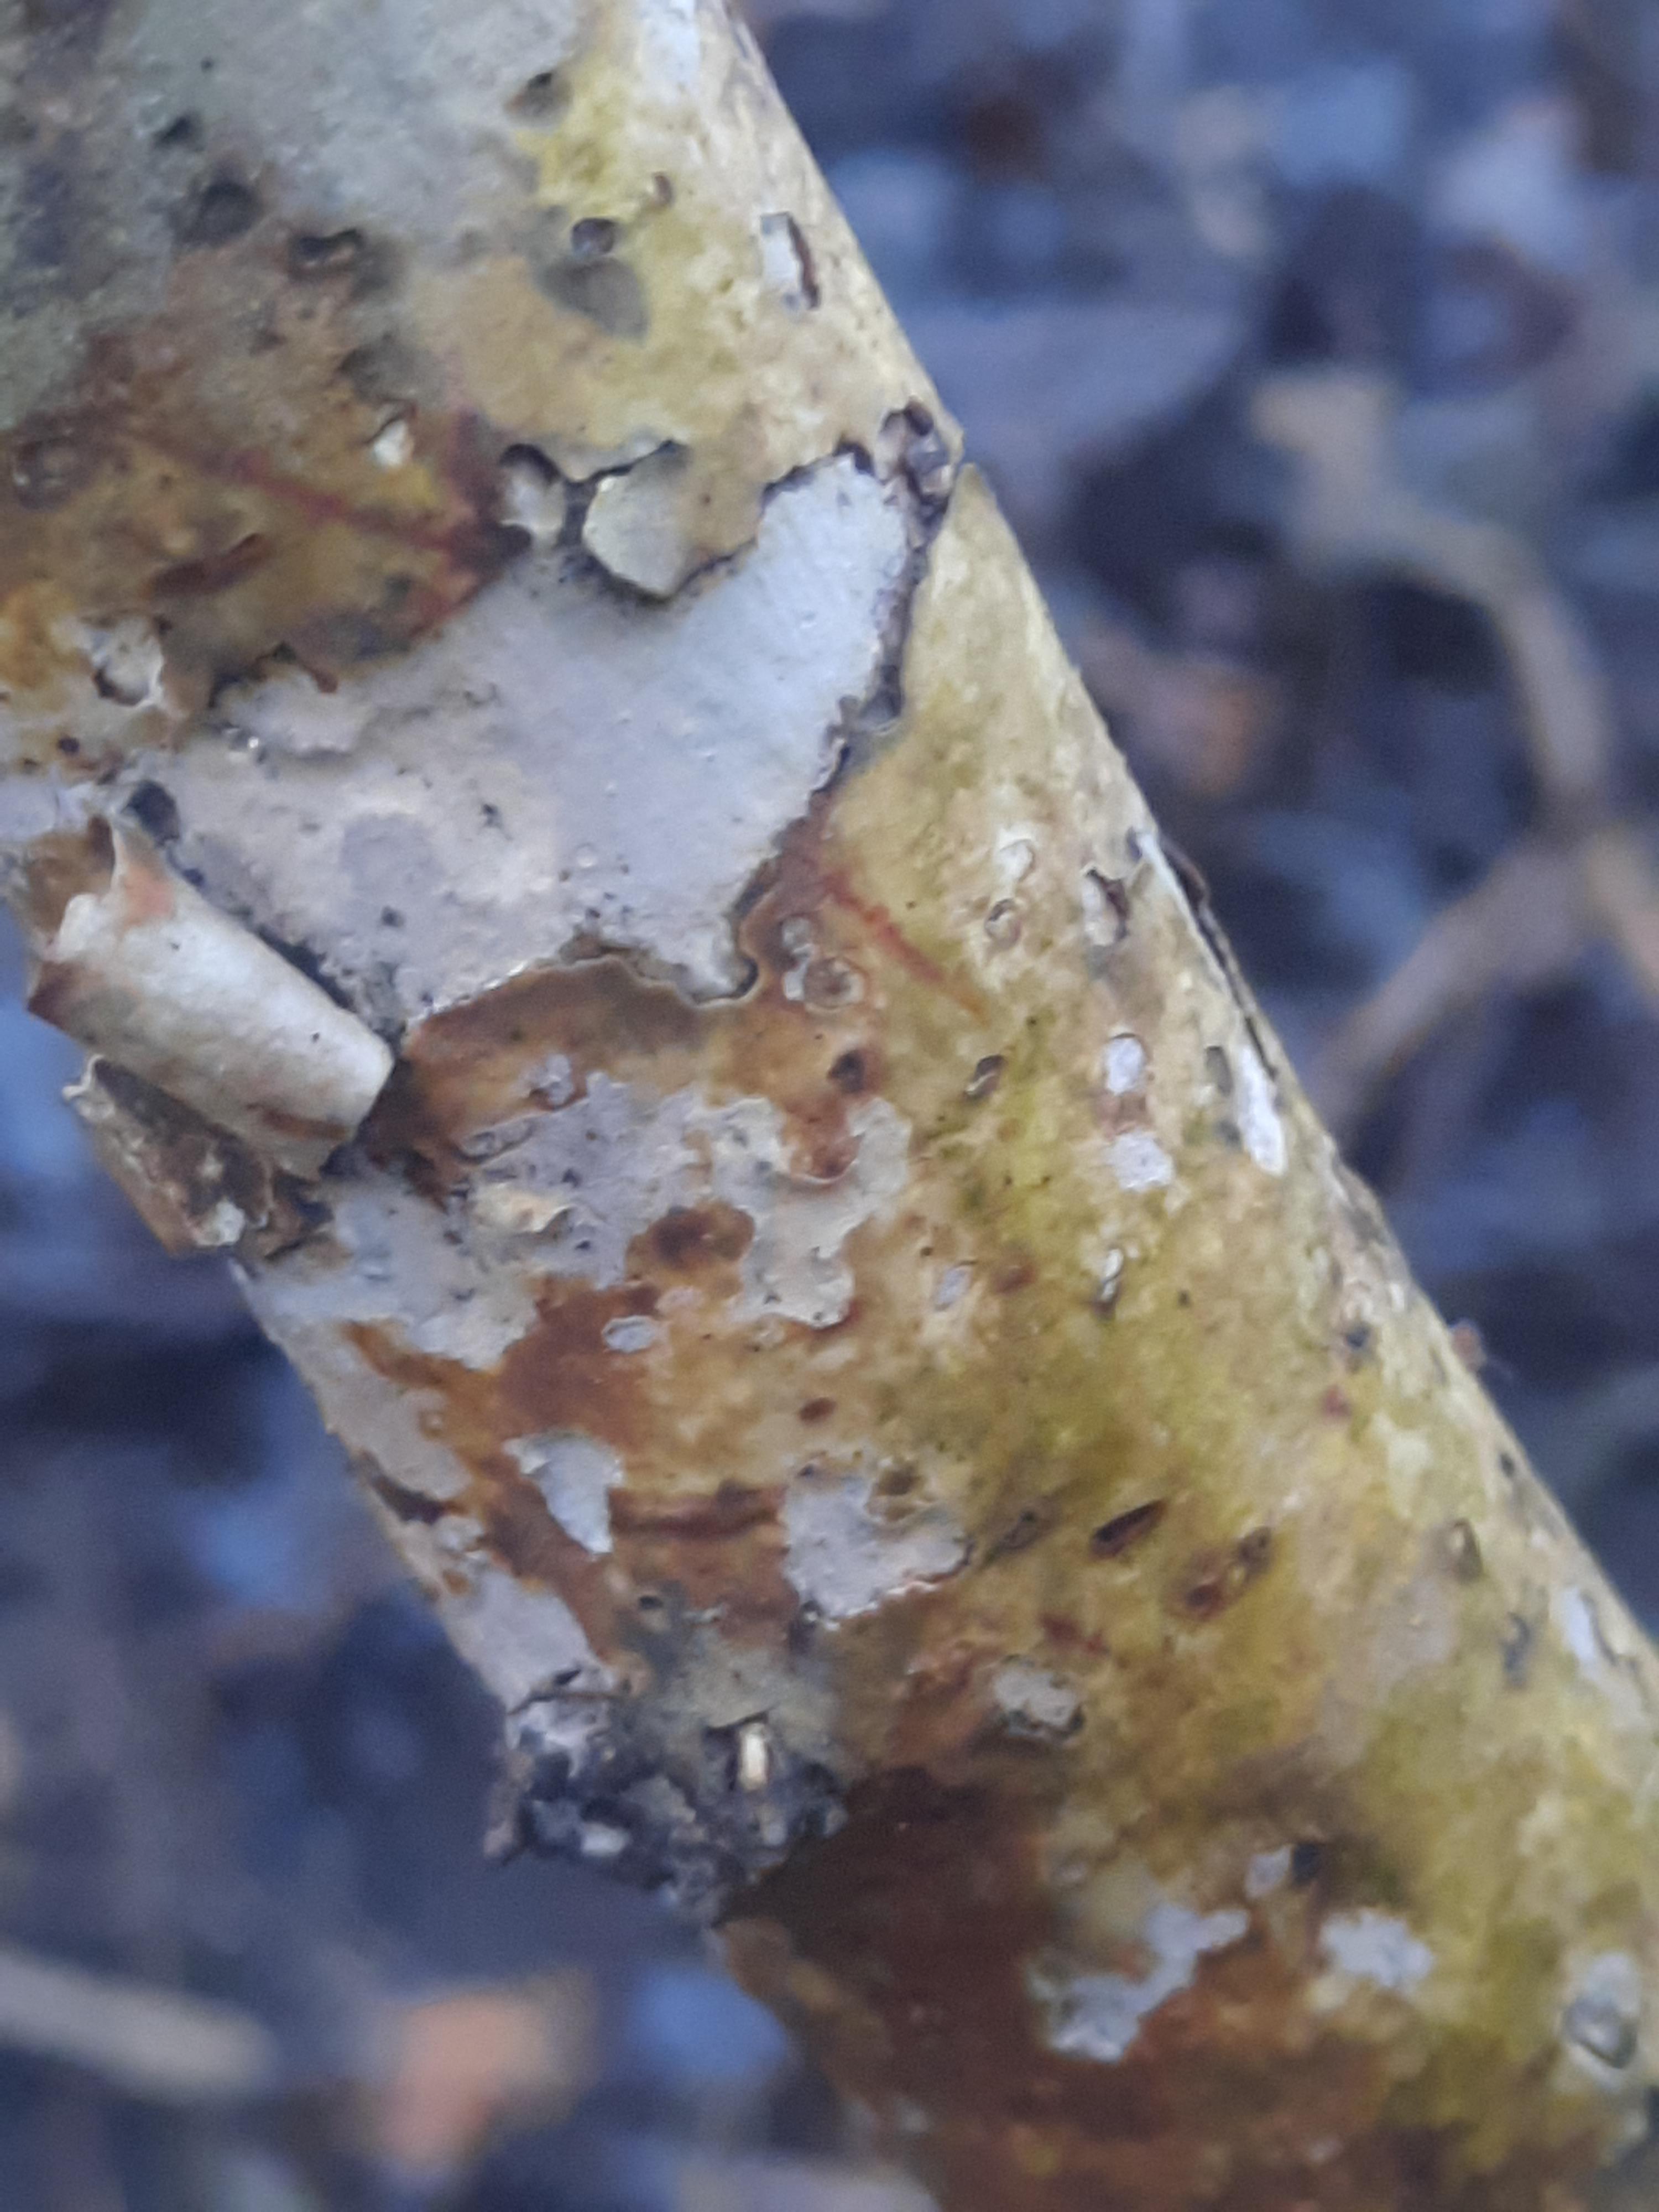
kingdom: Fungi
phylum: Basidiomycota
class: Agaricomycetes
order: Corticiales
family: Corticiaceae
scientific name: Corticiaceae
